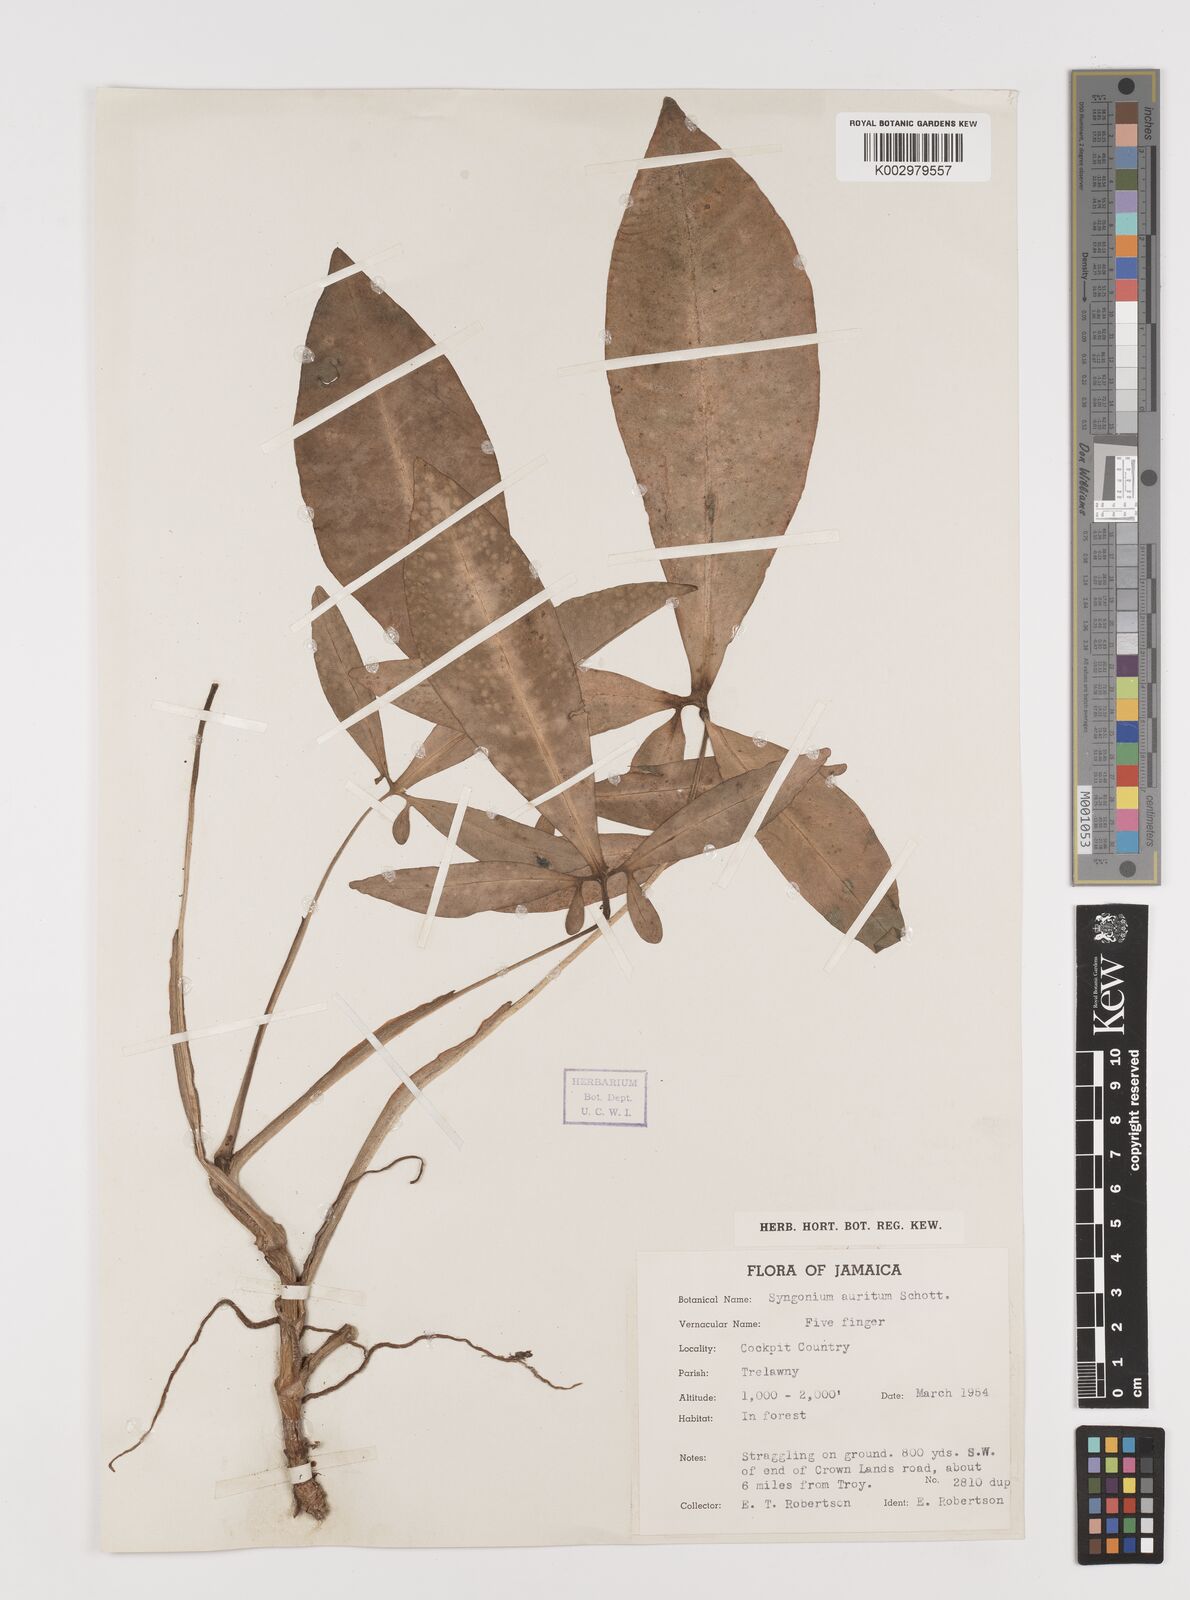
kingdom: Plantae
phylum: Tracheophyta
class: Liliopsida
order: Alismatales
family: Araceae
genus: Syngonium
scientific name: Syngonium auritum
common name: Five-fingers
